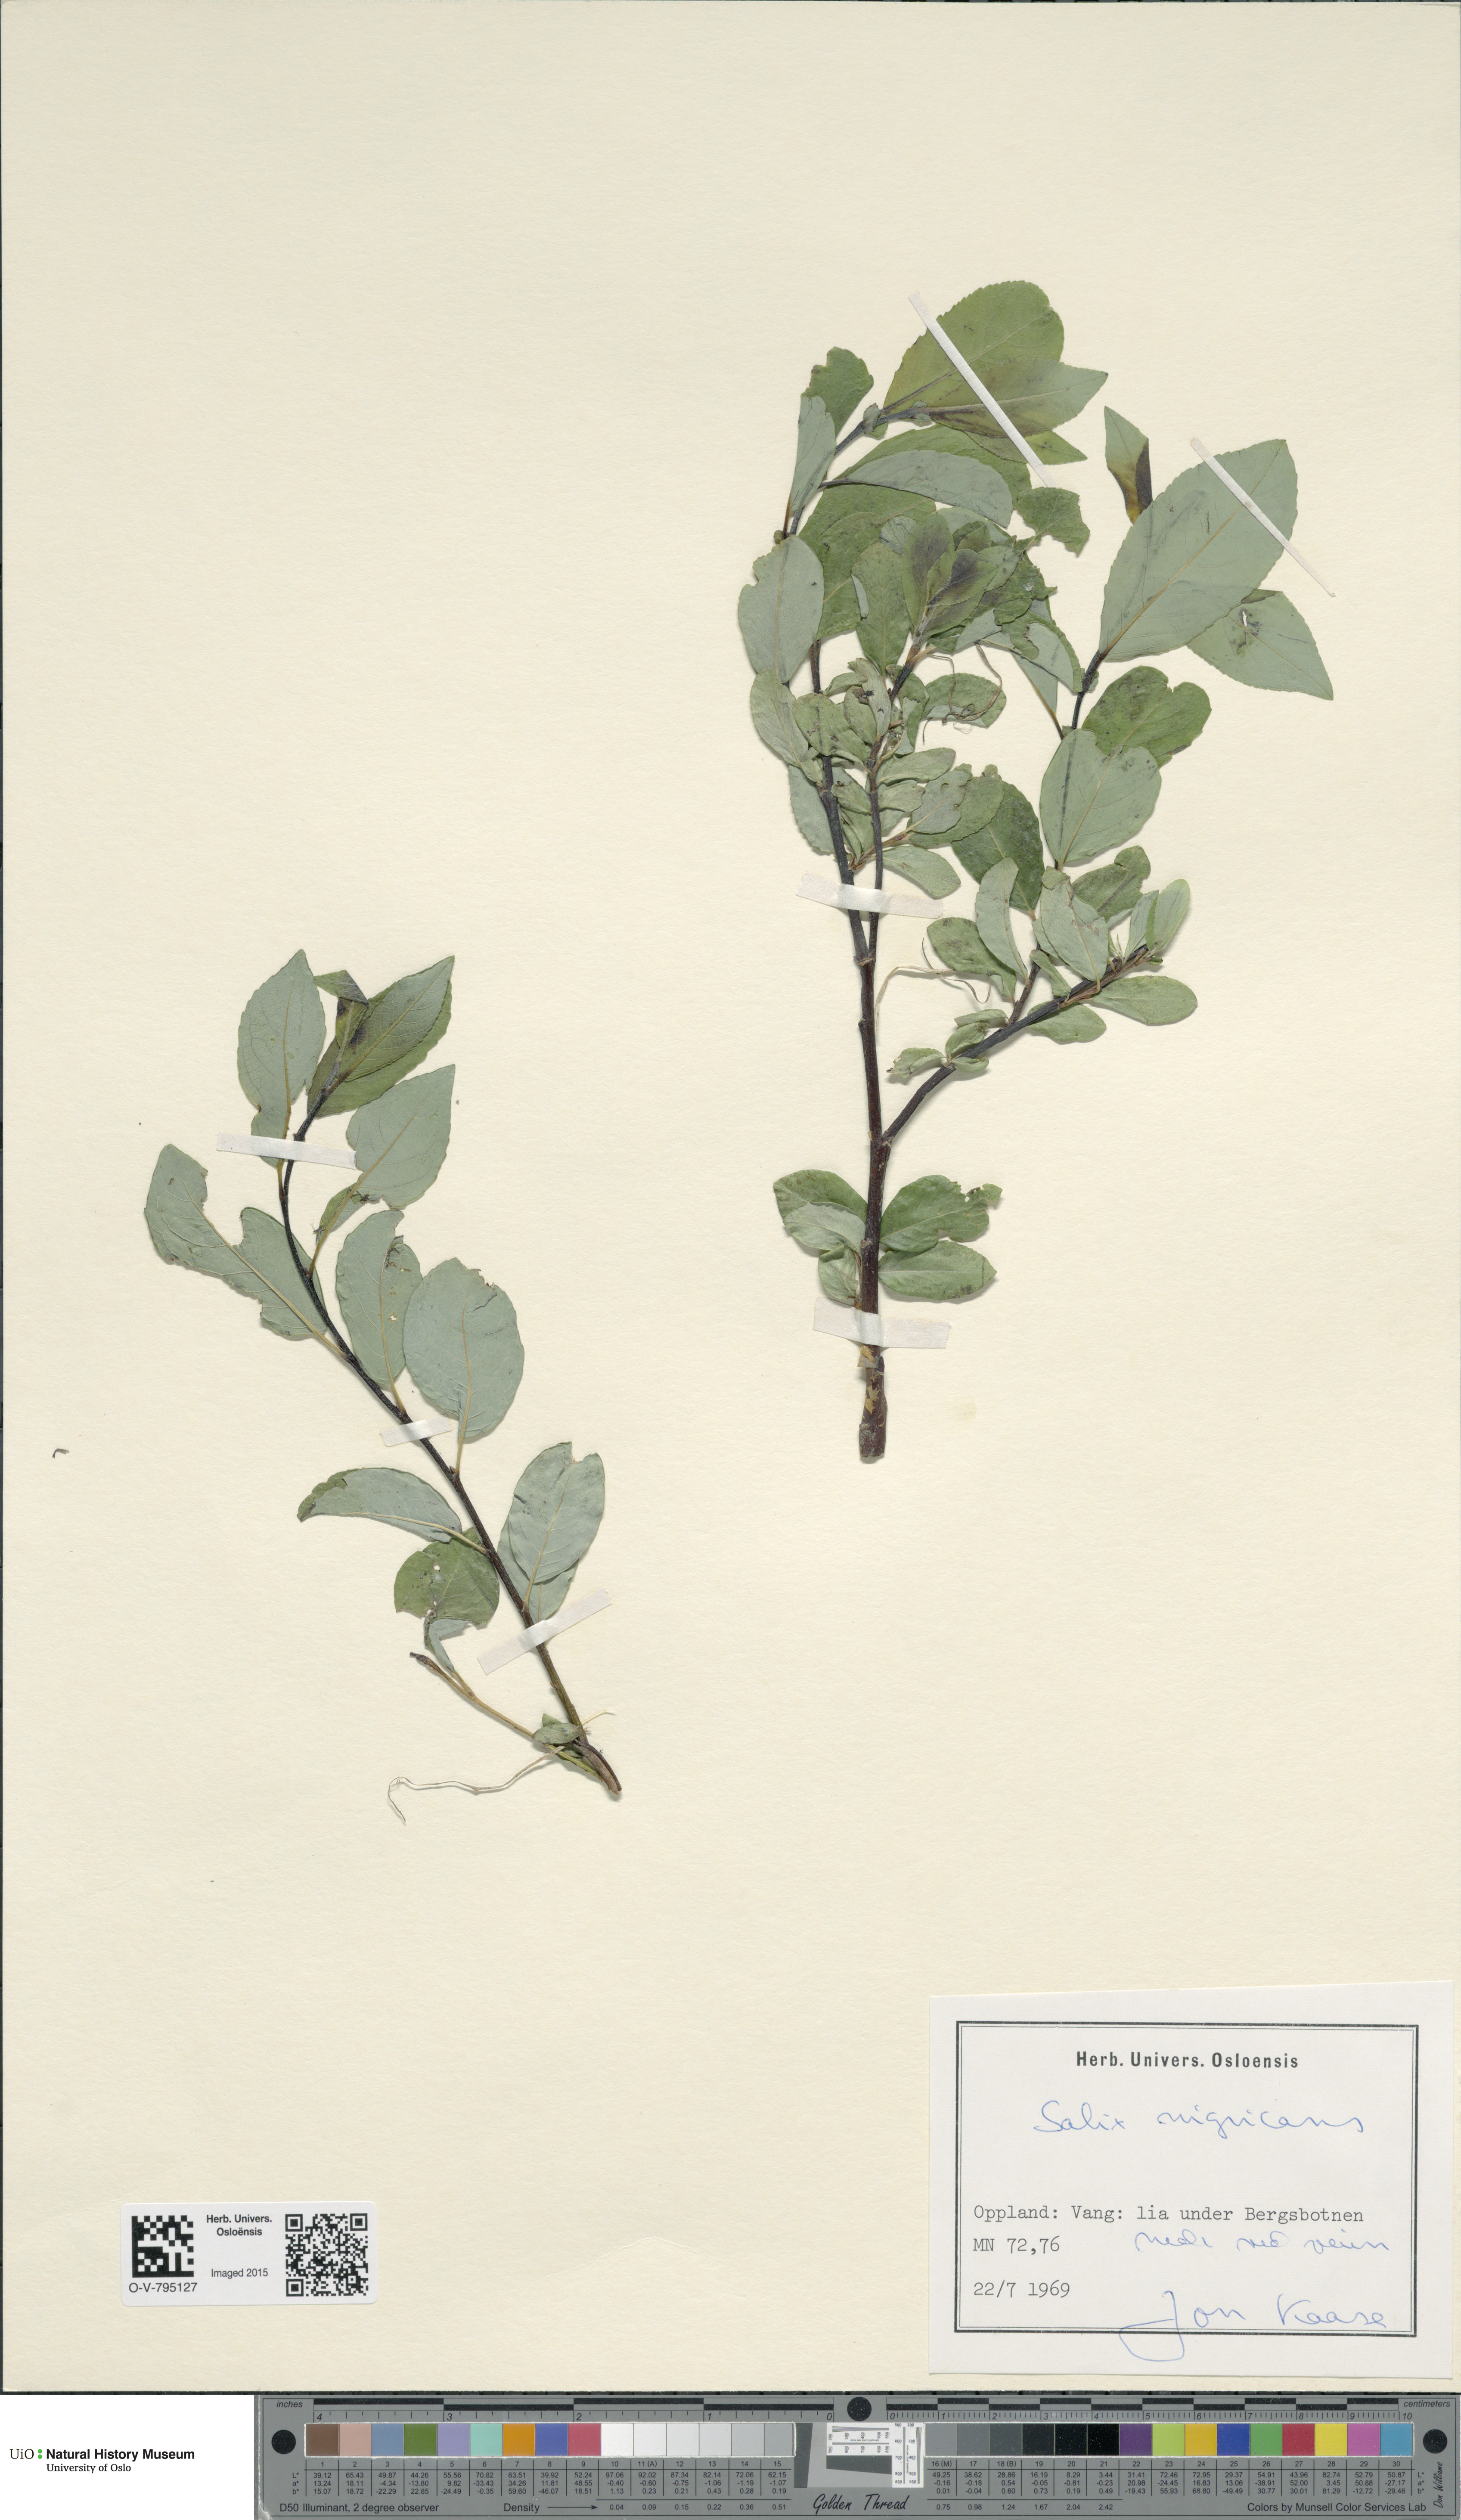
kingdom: Plantae
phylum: Tracheophyta
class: Magnoliopsida
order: Malpighiales
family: Salicaceae
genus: Salix
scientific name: Salix myrsinifolia
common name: Dark-leaved willow
